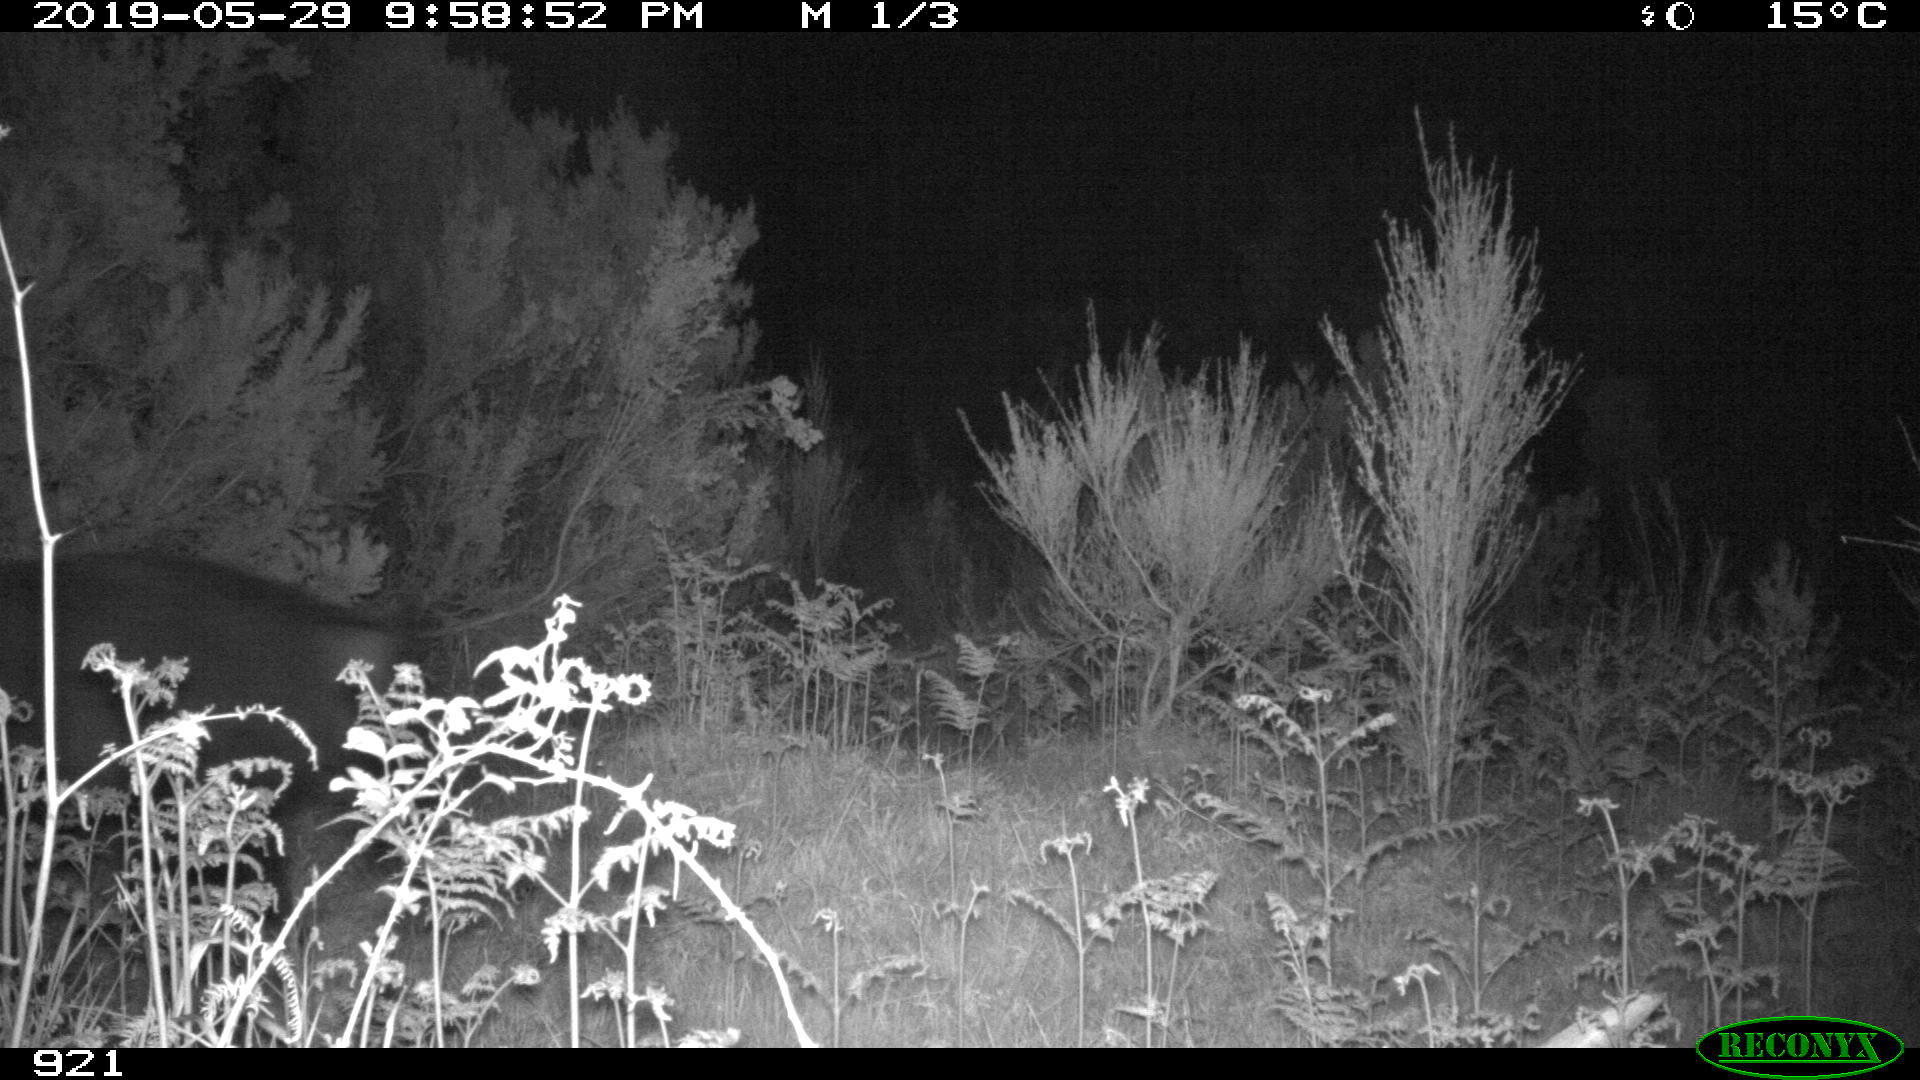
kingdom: Animalia
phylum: Chordata
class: Mammalia
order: Artiodactyla
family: Suidae
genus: Sus
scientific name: Sus scrofa
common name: Wild boar
